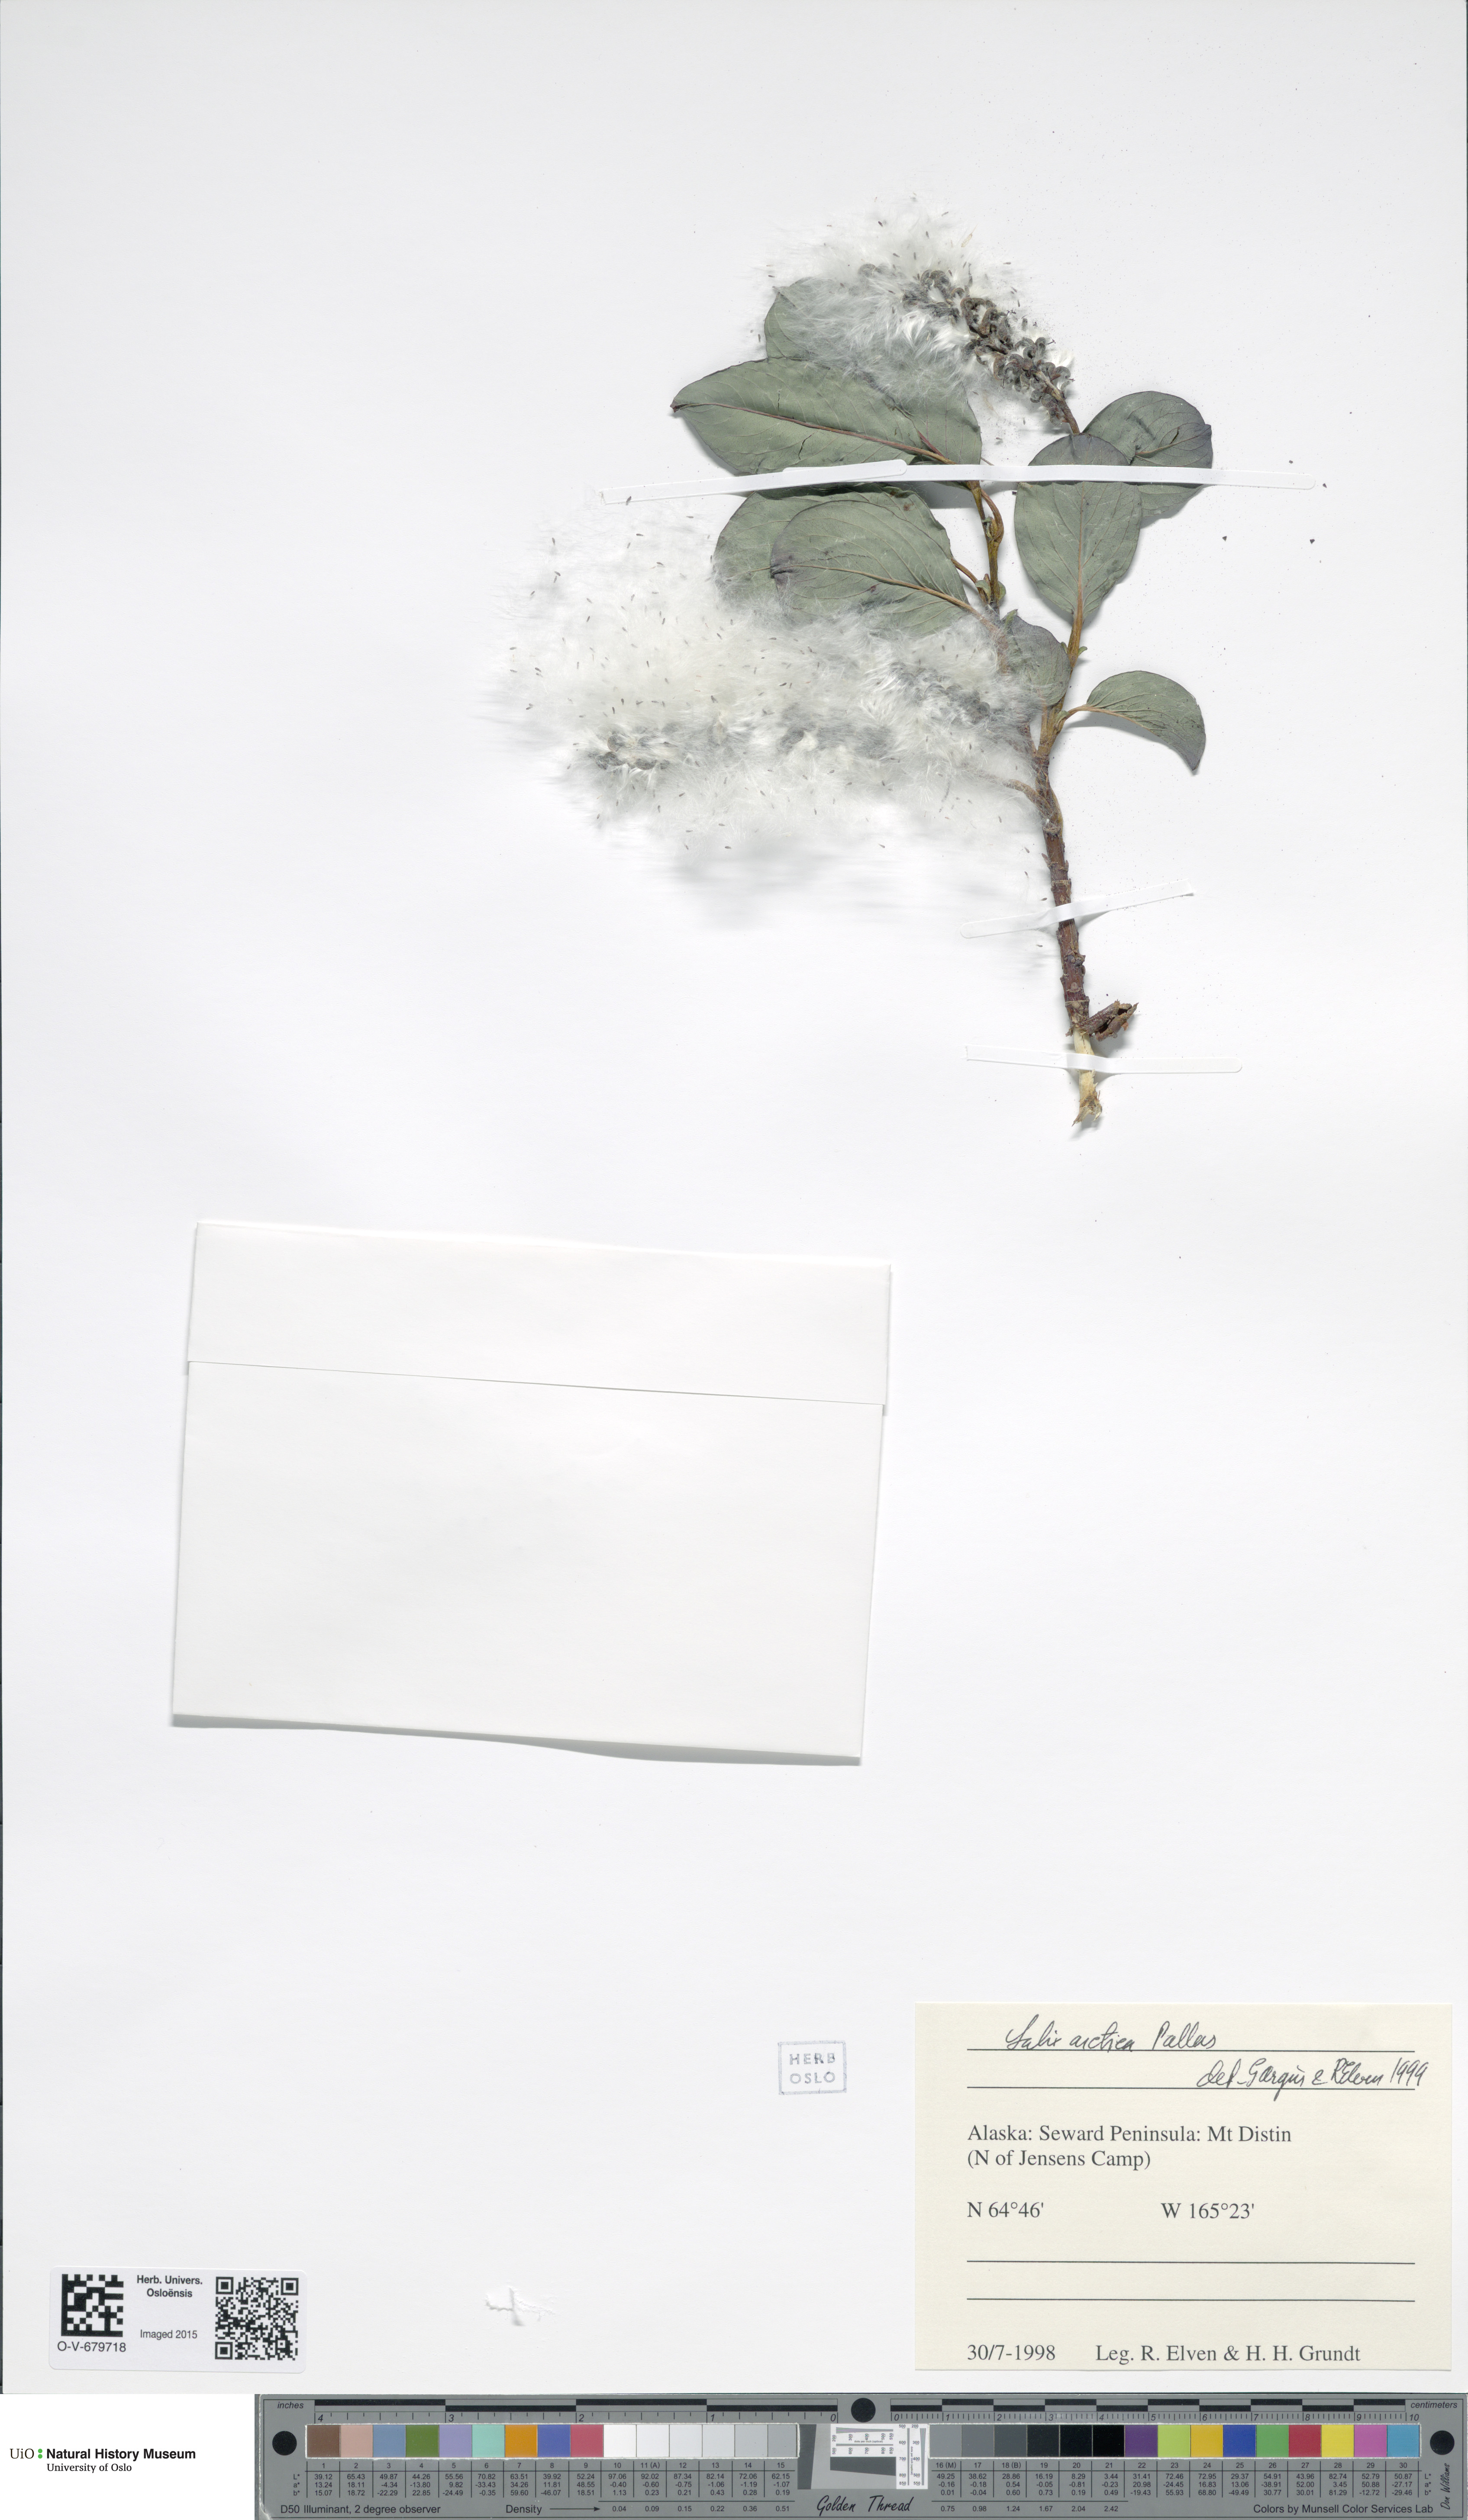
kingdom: Plantae
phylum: Tracheophyta
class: Magnoliopsida
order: Malpighiales
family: Salicaceae
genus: Salix
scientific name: Salix arctica
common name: Arctic willow
